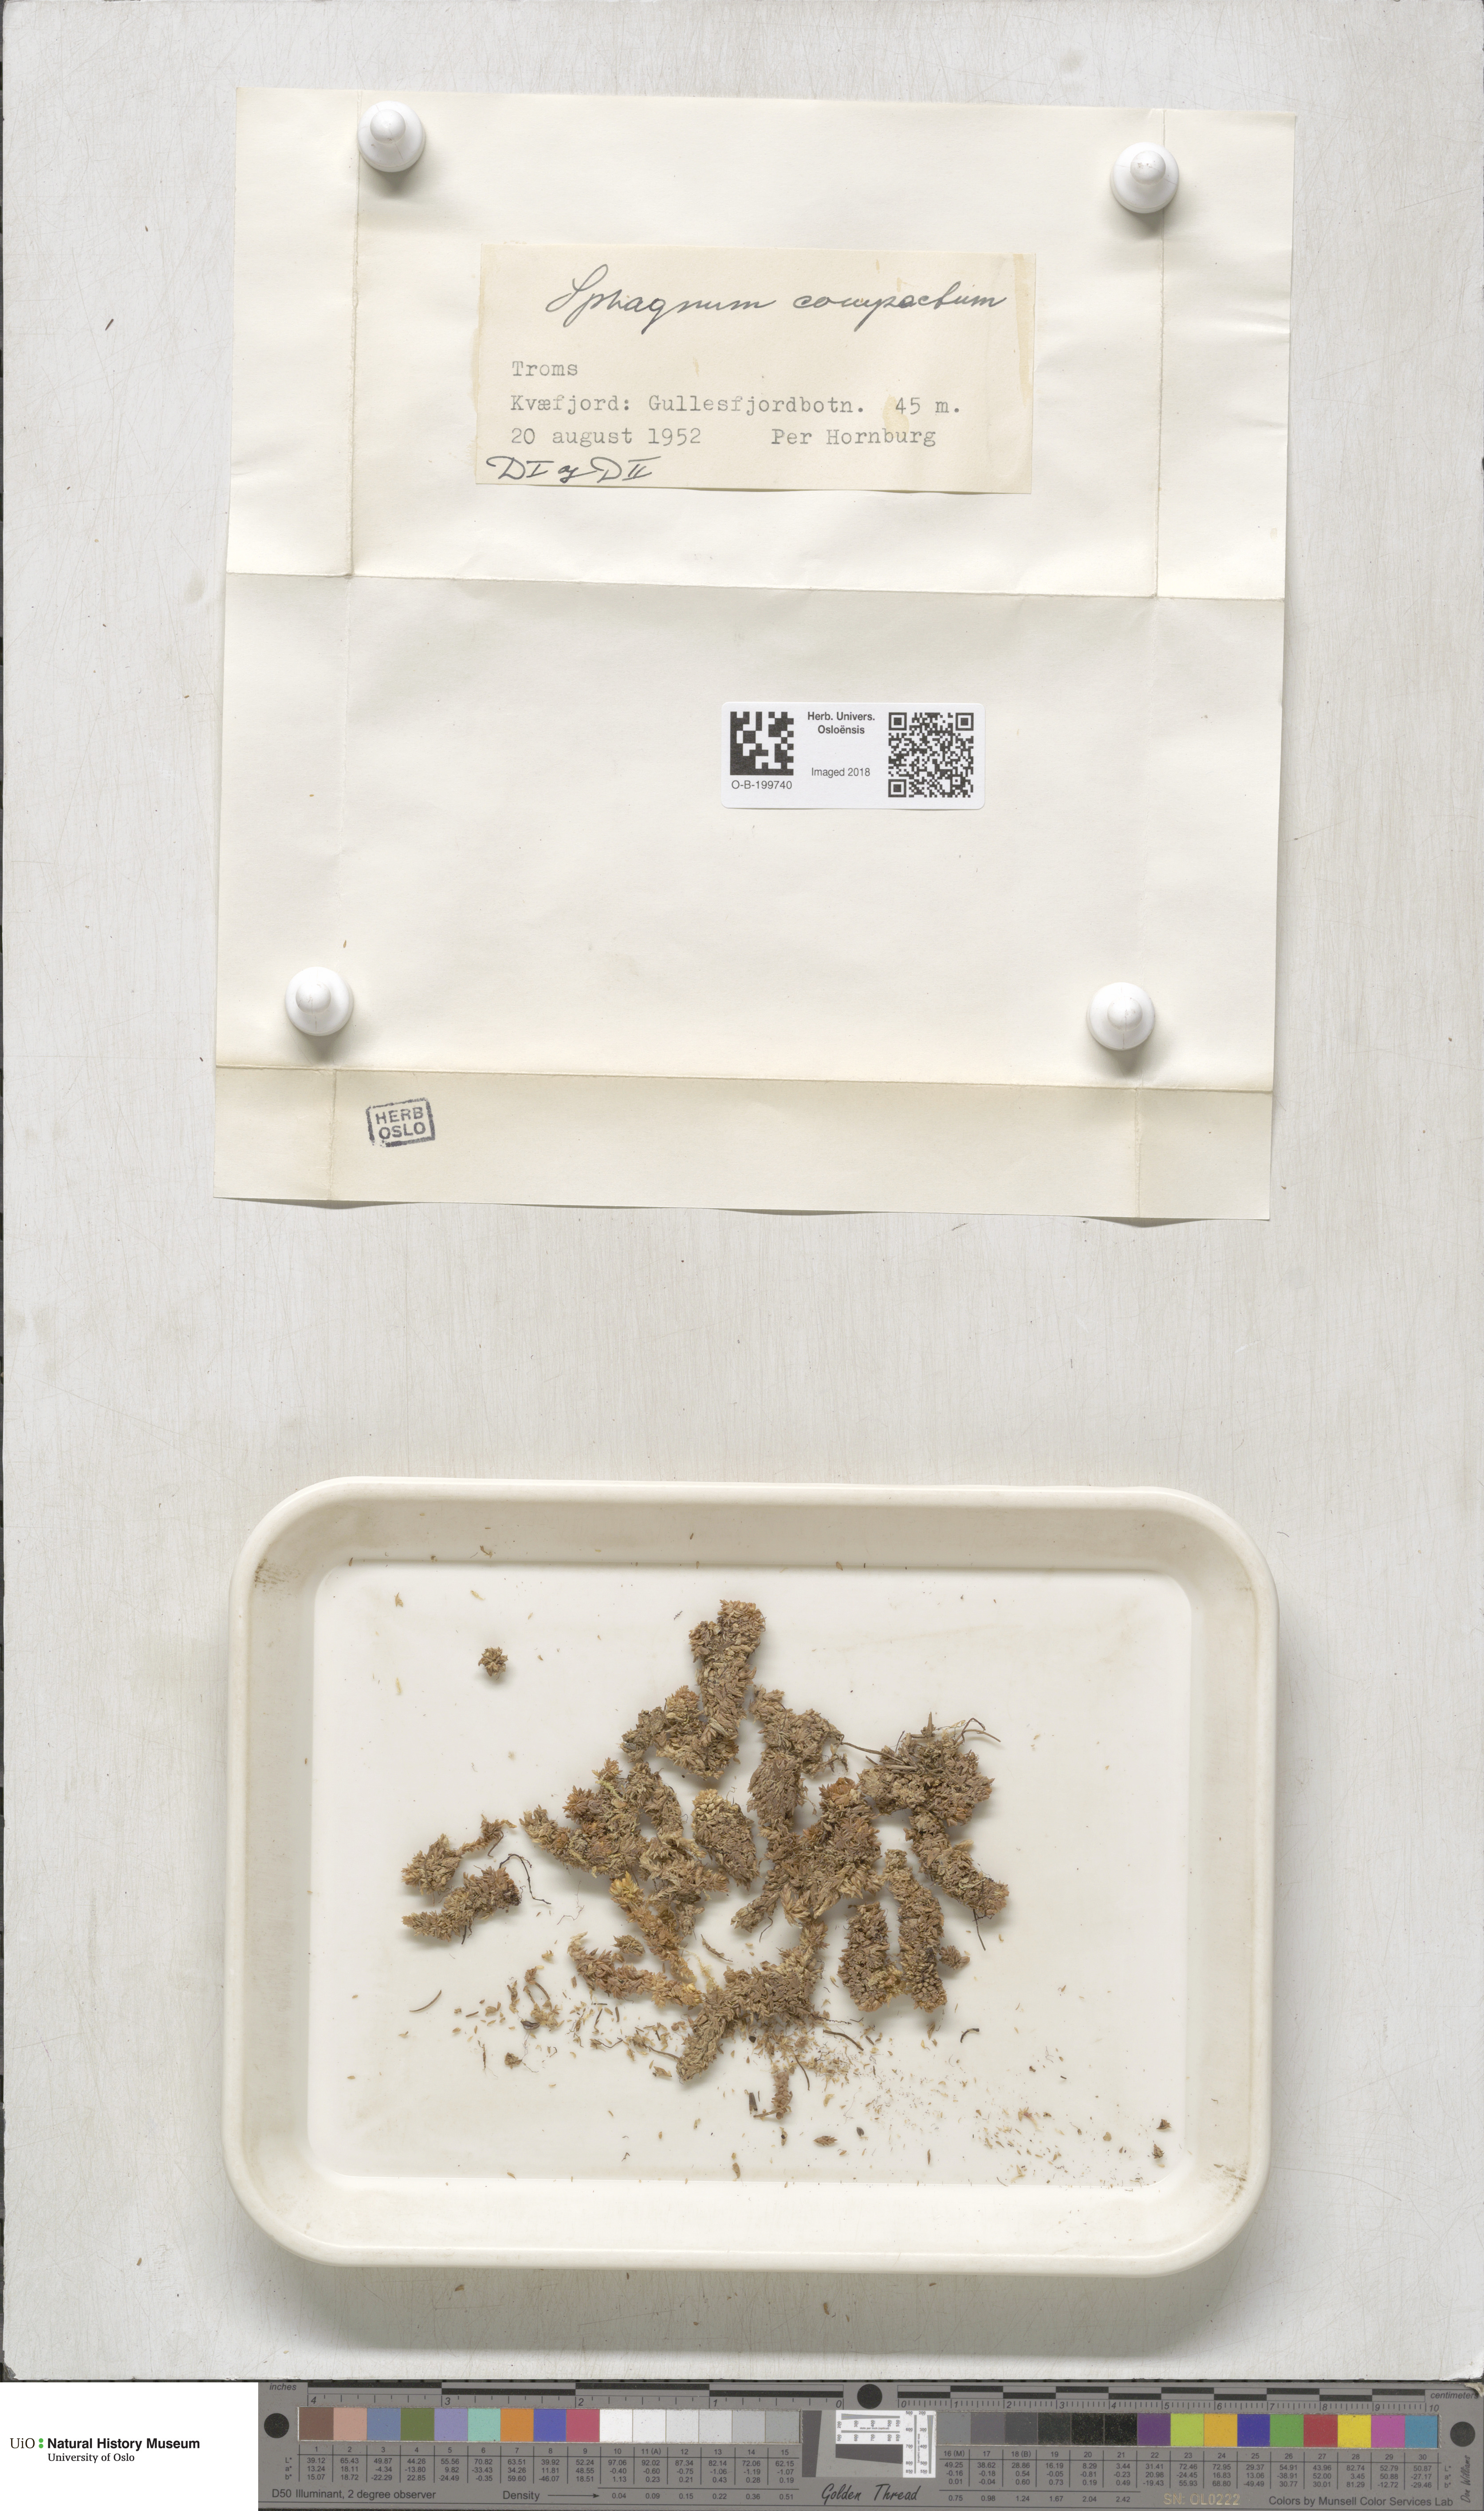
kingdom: Plantae
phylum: Bryophyta
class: Sphagnopsida
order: Sphagnales
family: Sphagnaceae
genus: Sphagnum
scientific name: Sphagnum compactum
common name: Compact peat moss
